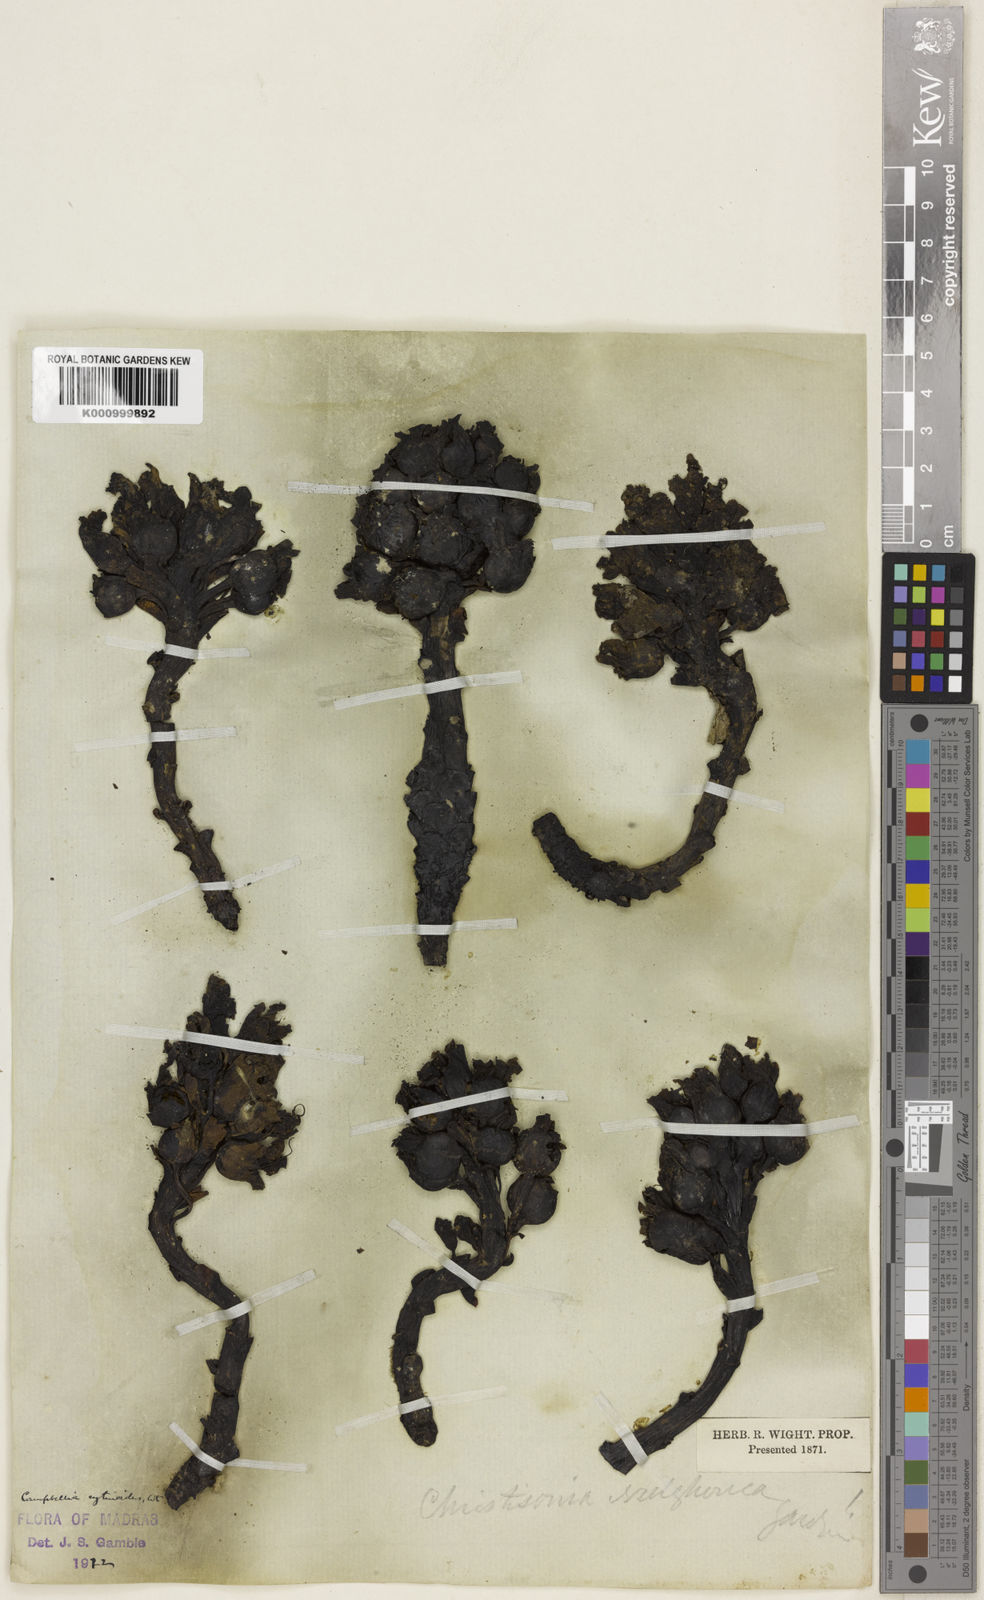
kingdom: Plantae
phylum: Tracheophyta
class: Magnoliopsida
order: Lamiales
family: Orobanchaceae
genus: Campbellia
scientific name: Campbellia cytinoides
